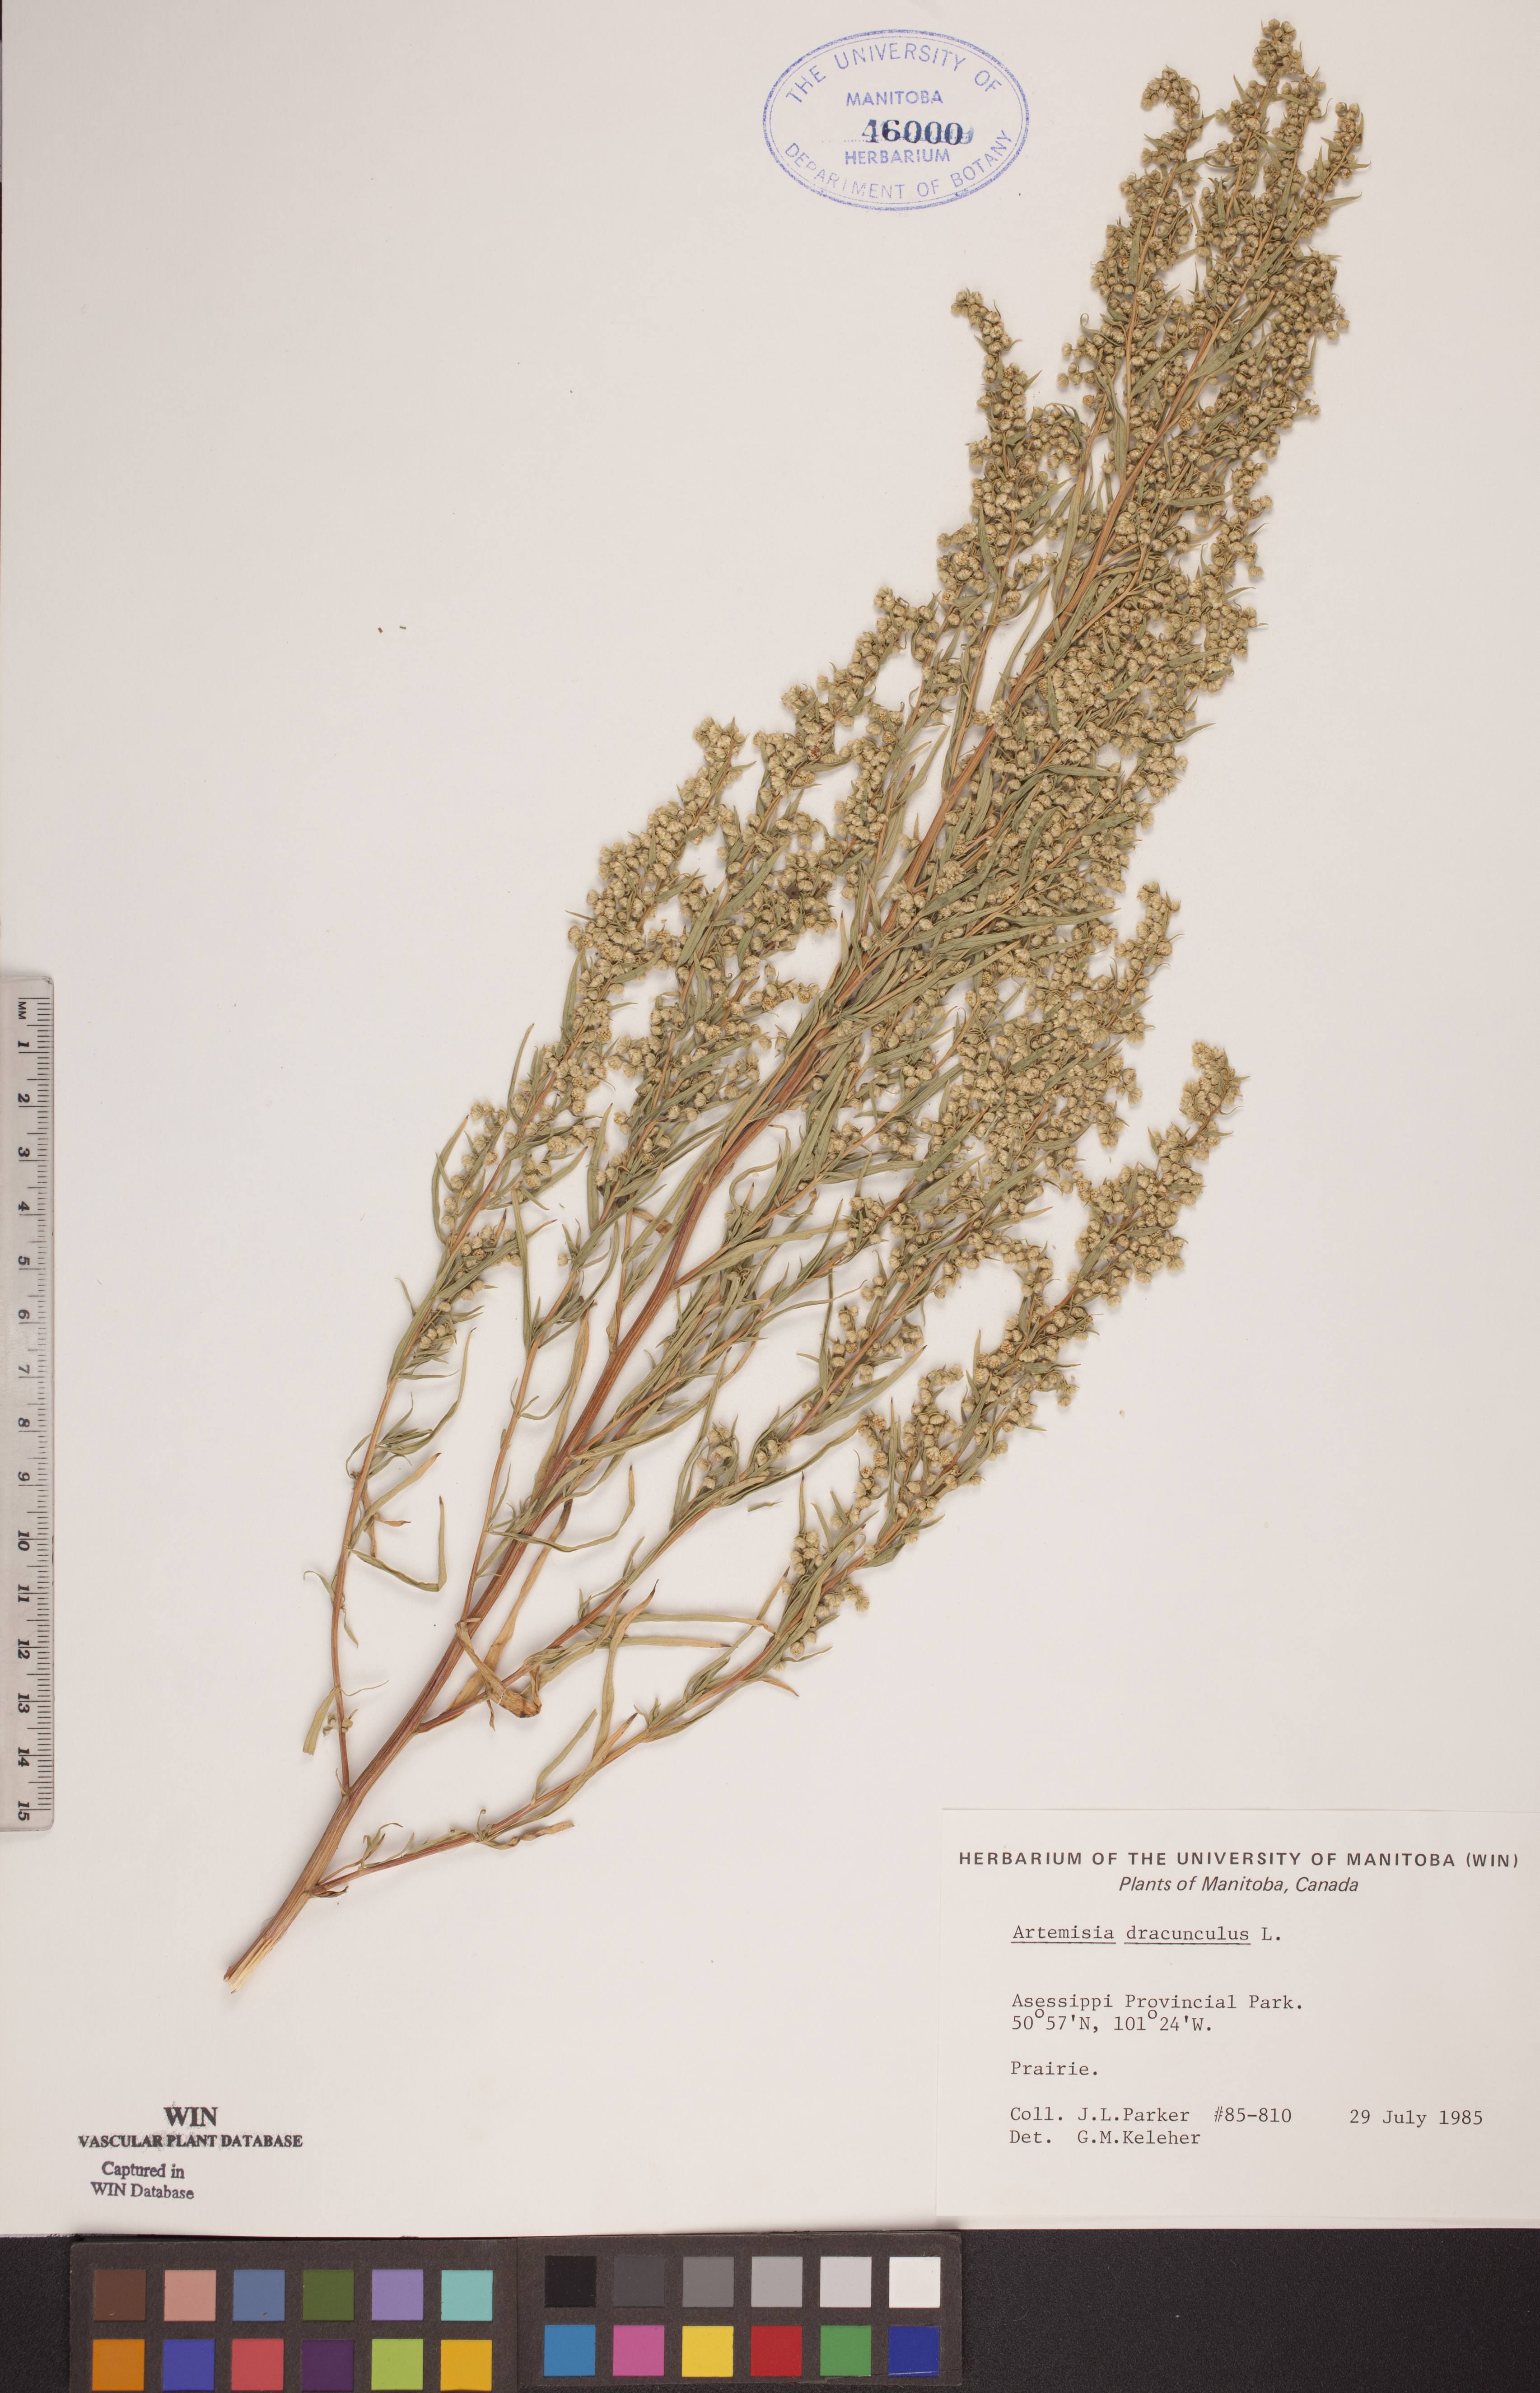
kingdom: Plantae
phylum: Tracheophyta
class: Magnoliopsida
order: Asterales
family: Asteraceae
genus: Artemisia
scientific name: Artemisia dracunculus
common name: Tarragon
